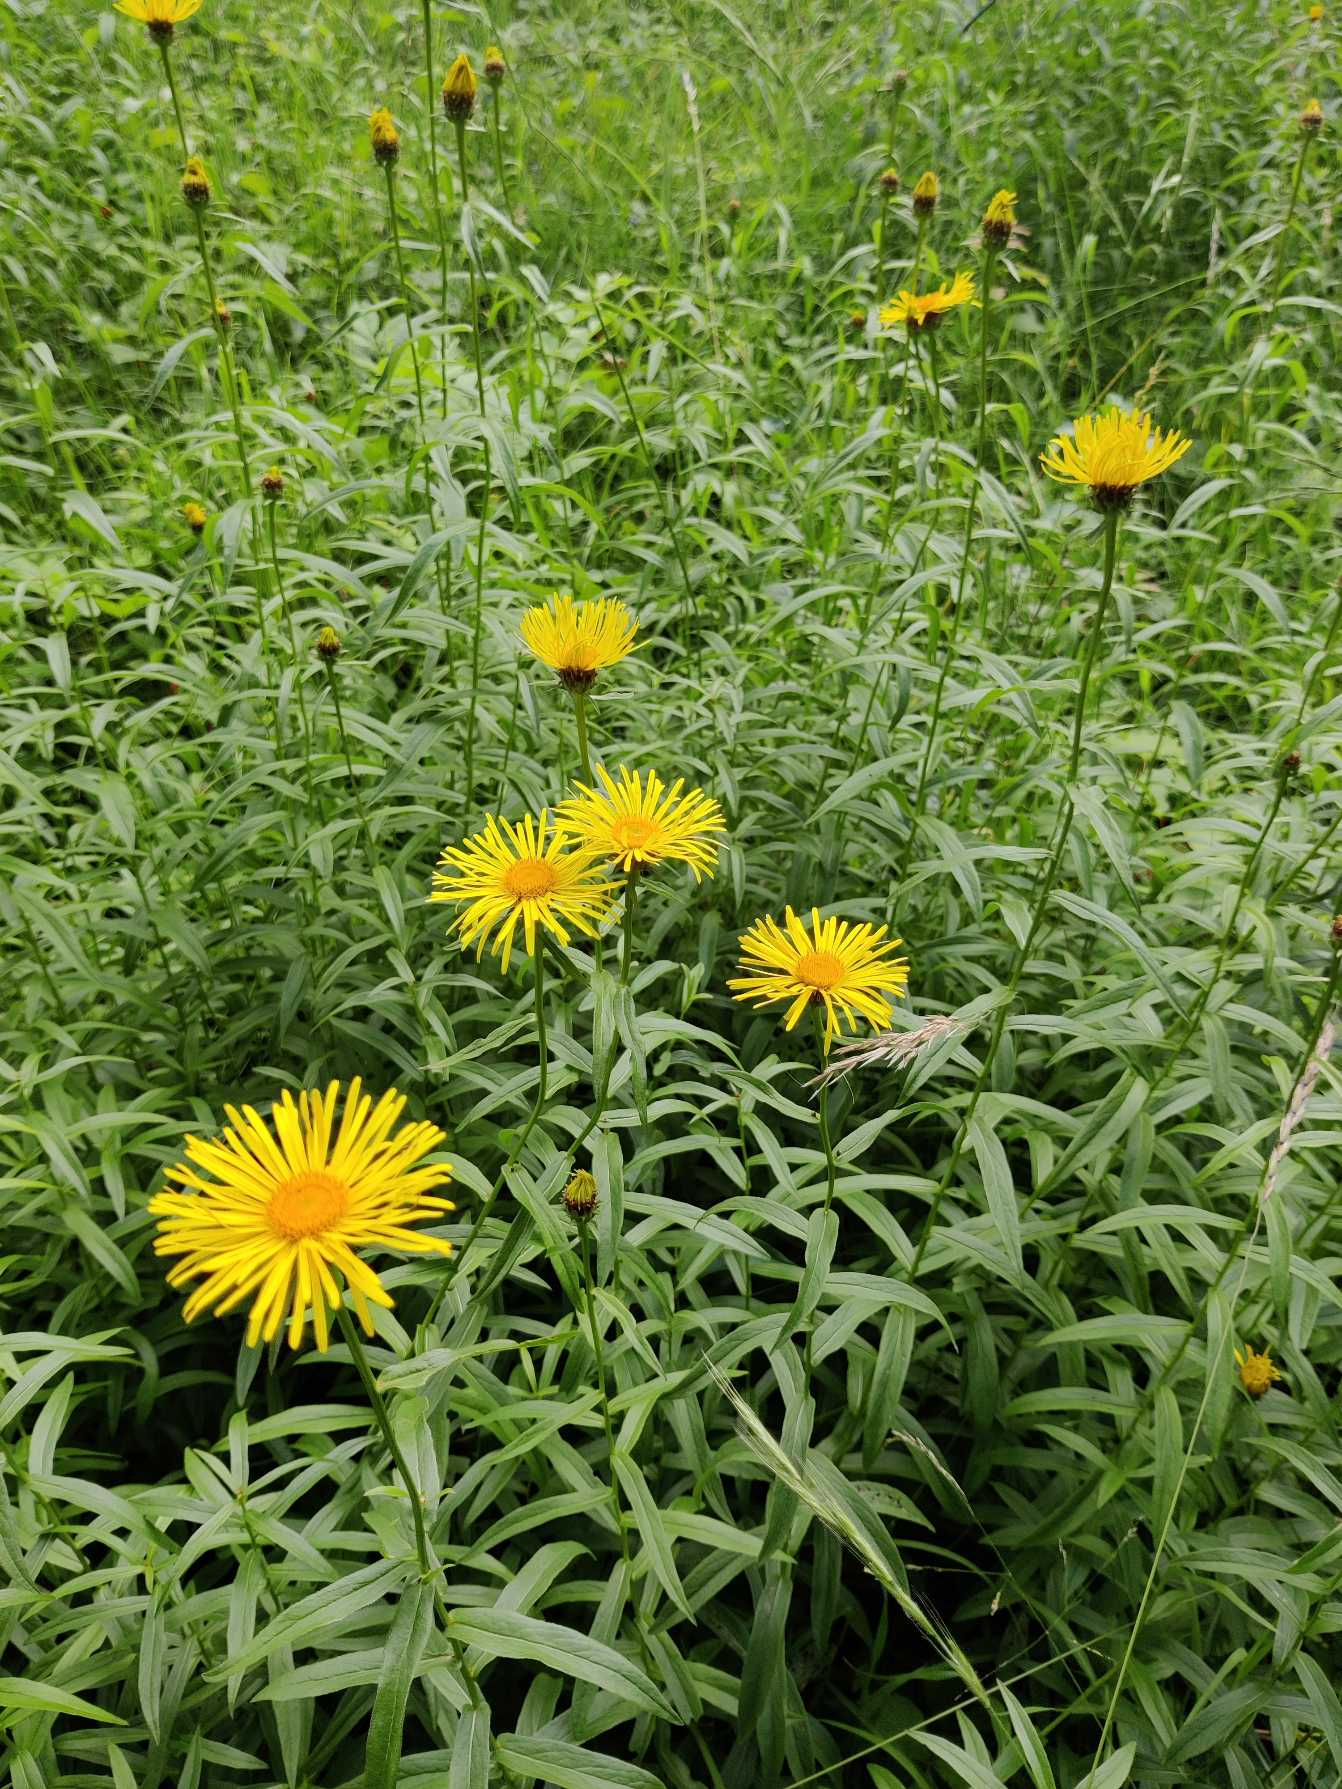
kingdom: Plantae
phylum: Tracheophyta
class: Magnoliopsida
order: Asterales
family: Asteraceae
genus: Pentanema
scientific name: Pentanema salicinum
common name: Pile-alant
